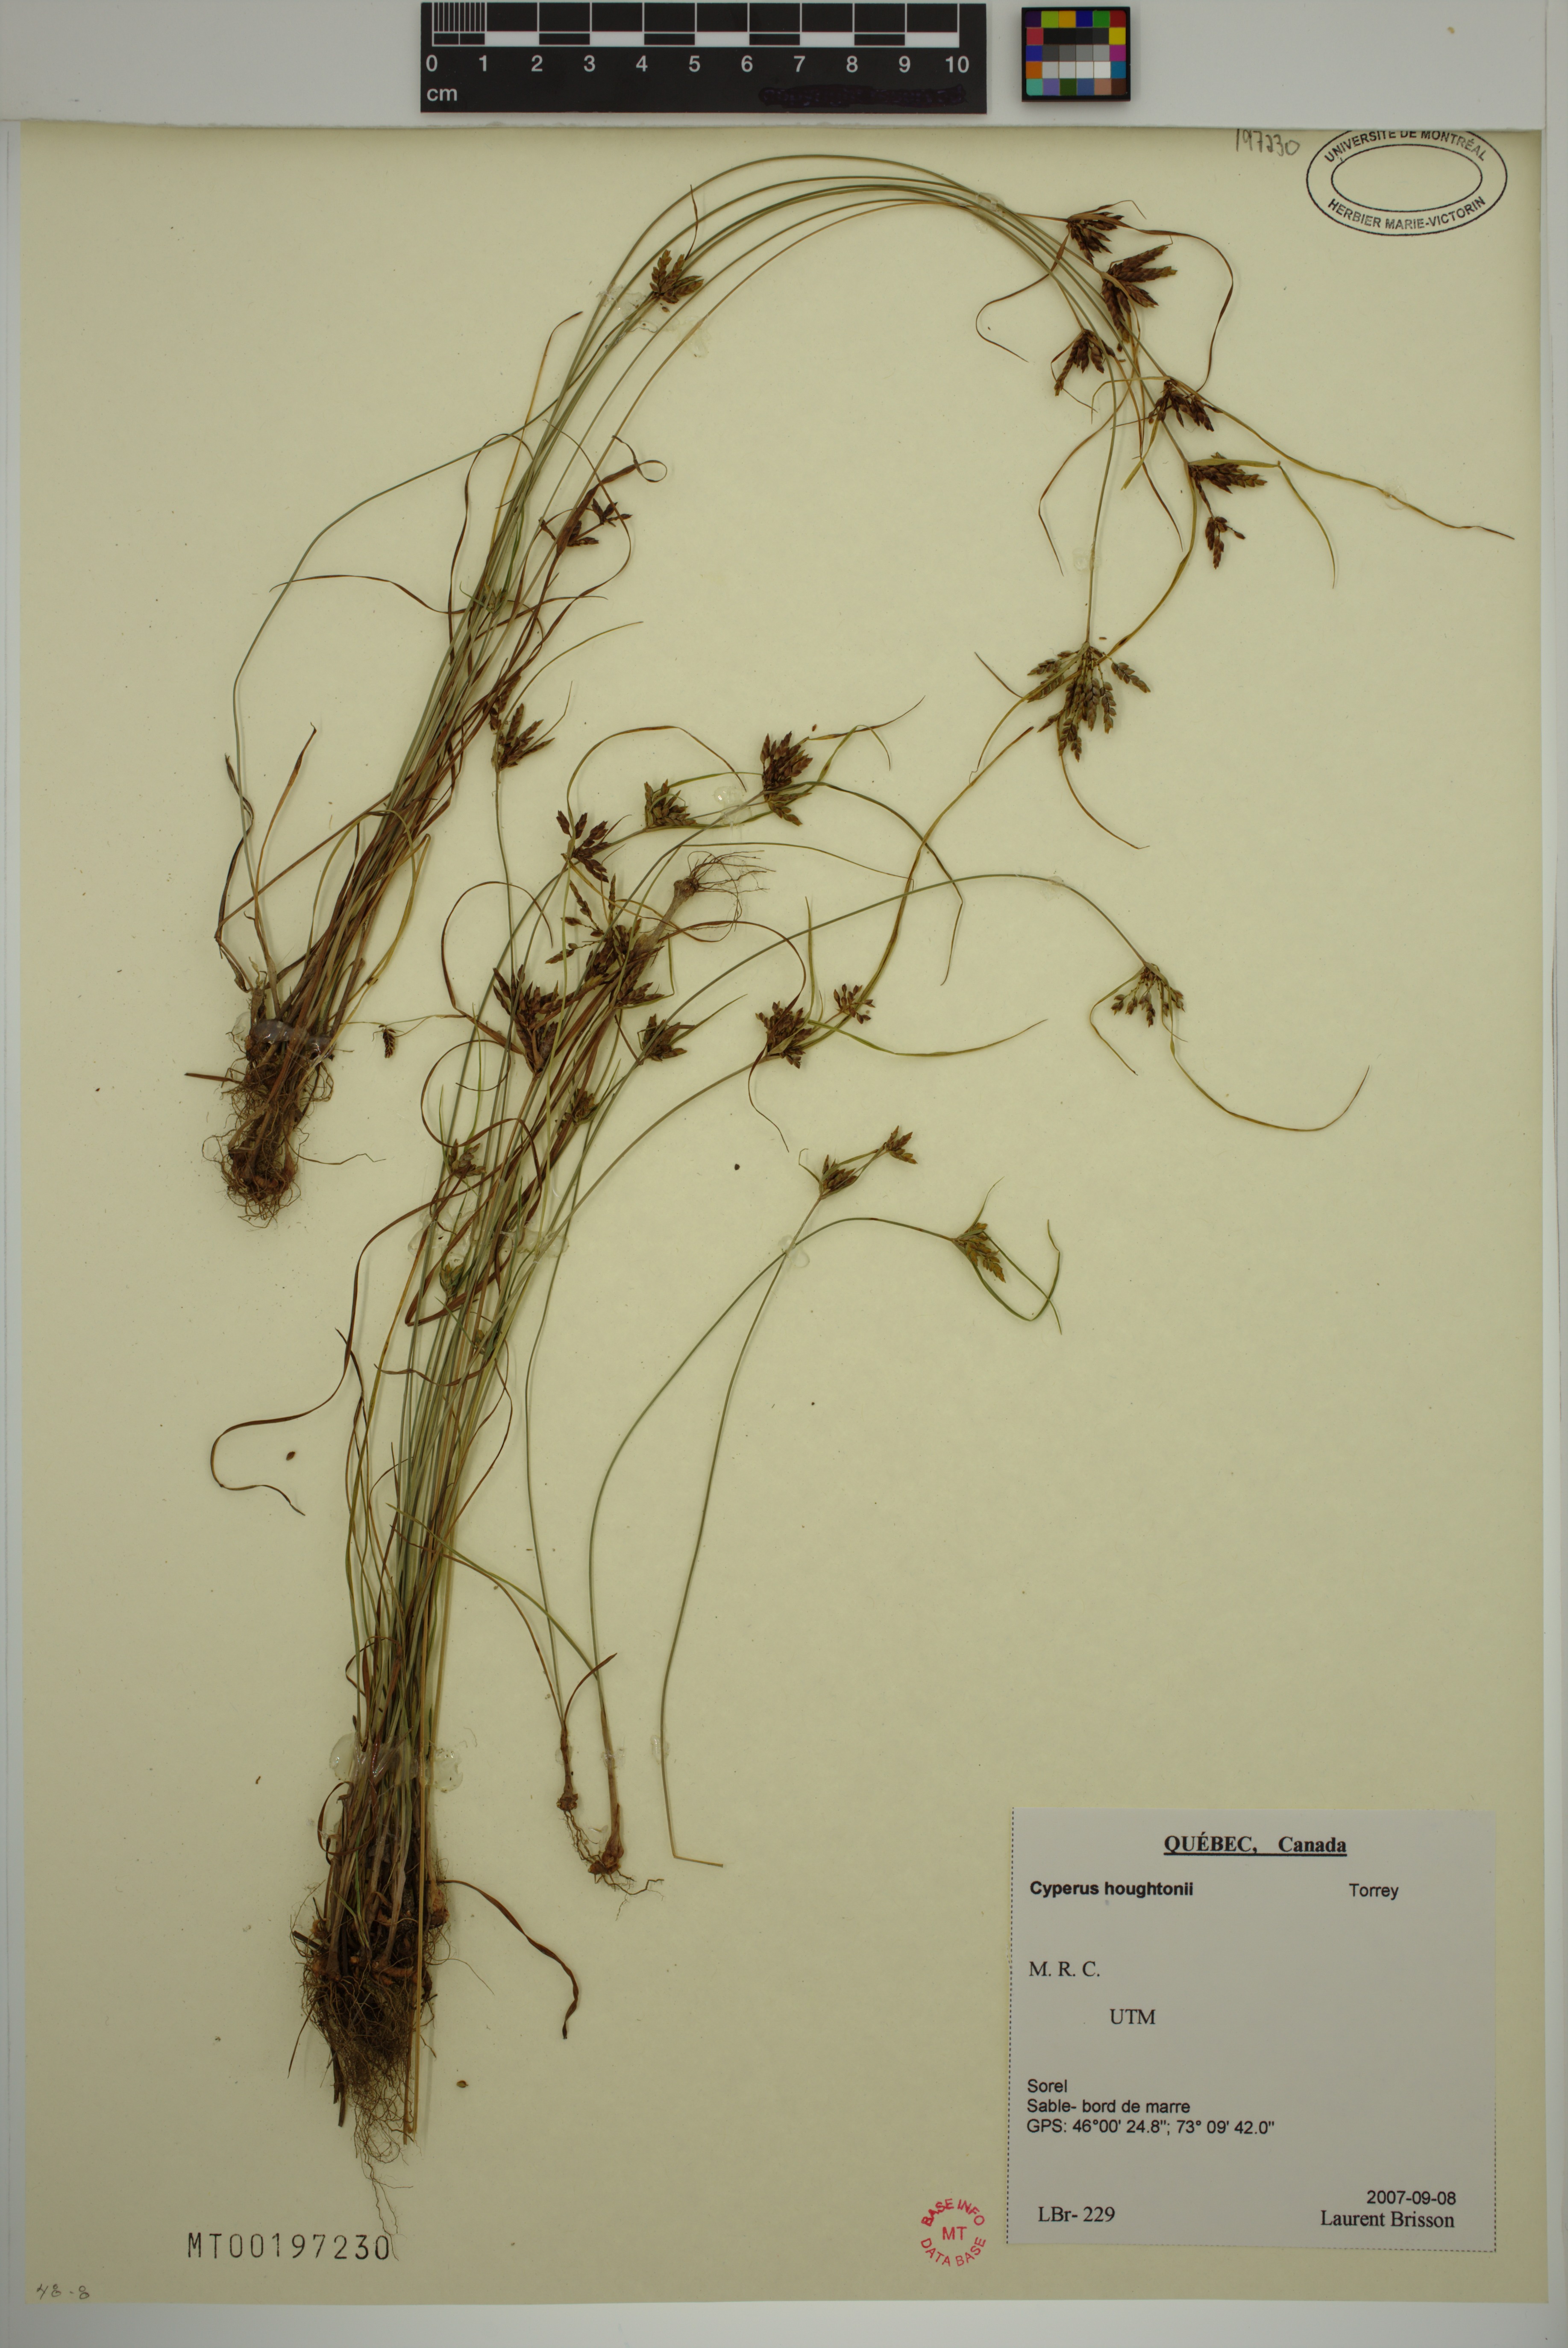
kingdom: Plantae
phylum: Tracheophyta
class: Liliopsida
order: Poales
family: Cyperaceae
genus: Cyperus
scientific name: Cyperus houghtonii
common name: Houghton's cyperus
